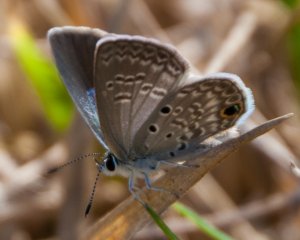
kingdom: Animalia
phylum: Arthropoda
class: Insecta
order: Lepidoptera
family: Lycaenidae
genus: Hemiargus
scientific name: Hemiargus ceraunus
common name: Ceraunus Blue
